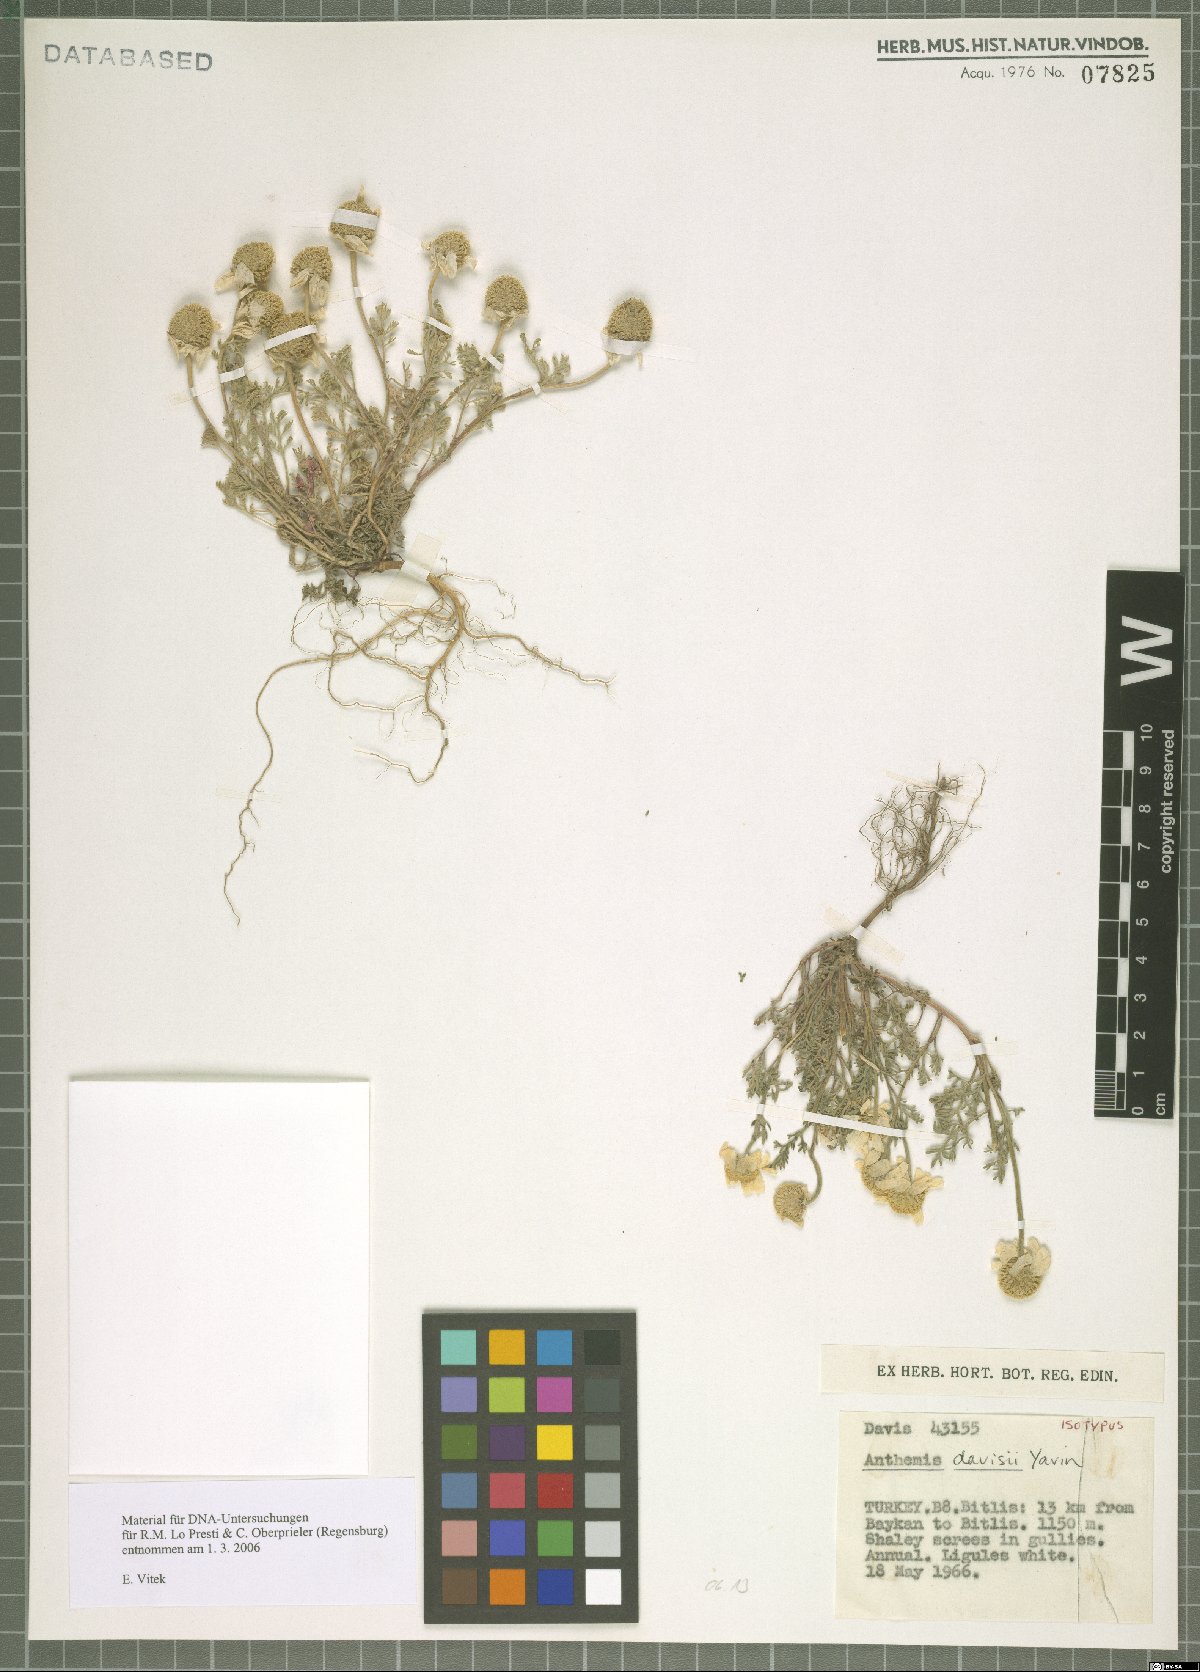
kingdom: Plantae
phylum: Tracheophyta
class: Magnoliopsida
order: Asterales
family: Asteraceae
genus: Anthemis
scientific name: Anthemis davisii
